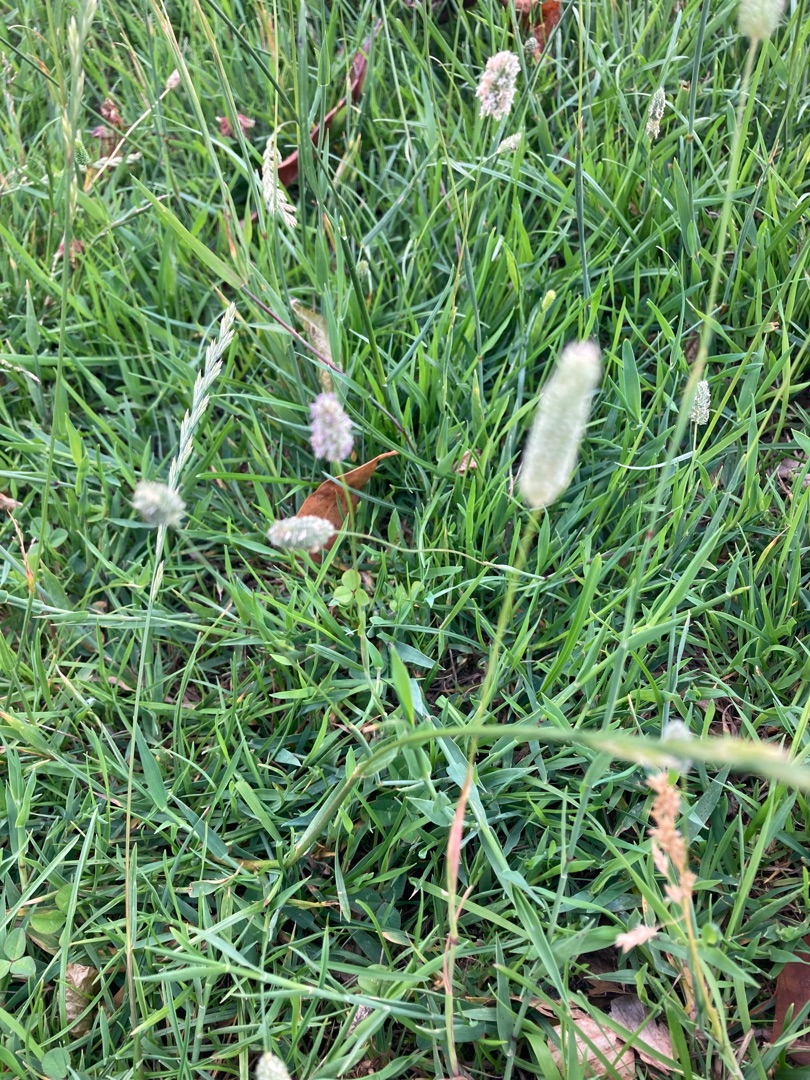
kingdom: Plantae
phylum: Tracheophyta
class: Liliopsida
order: Poales
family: Poaceae
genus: Phleum
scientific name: Phleum pratense
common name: Eng-rottehale
